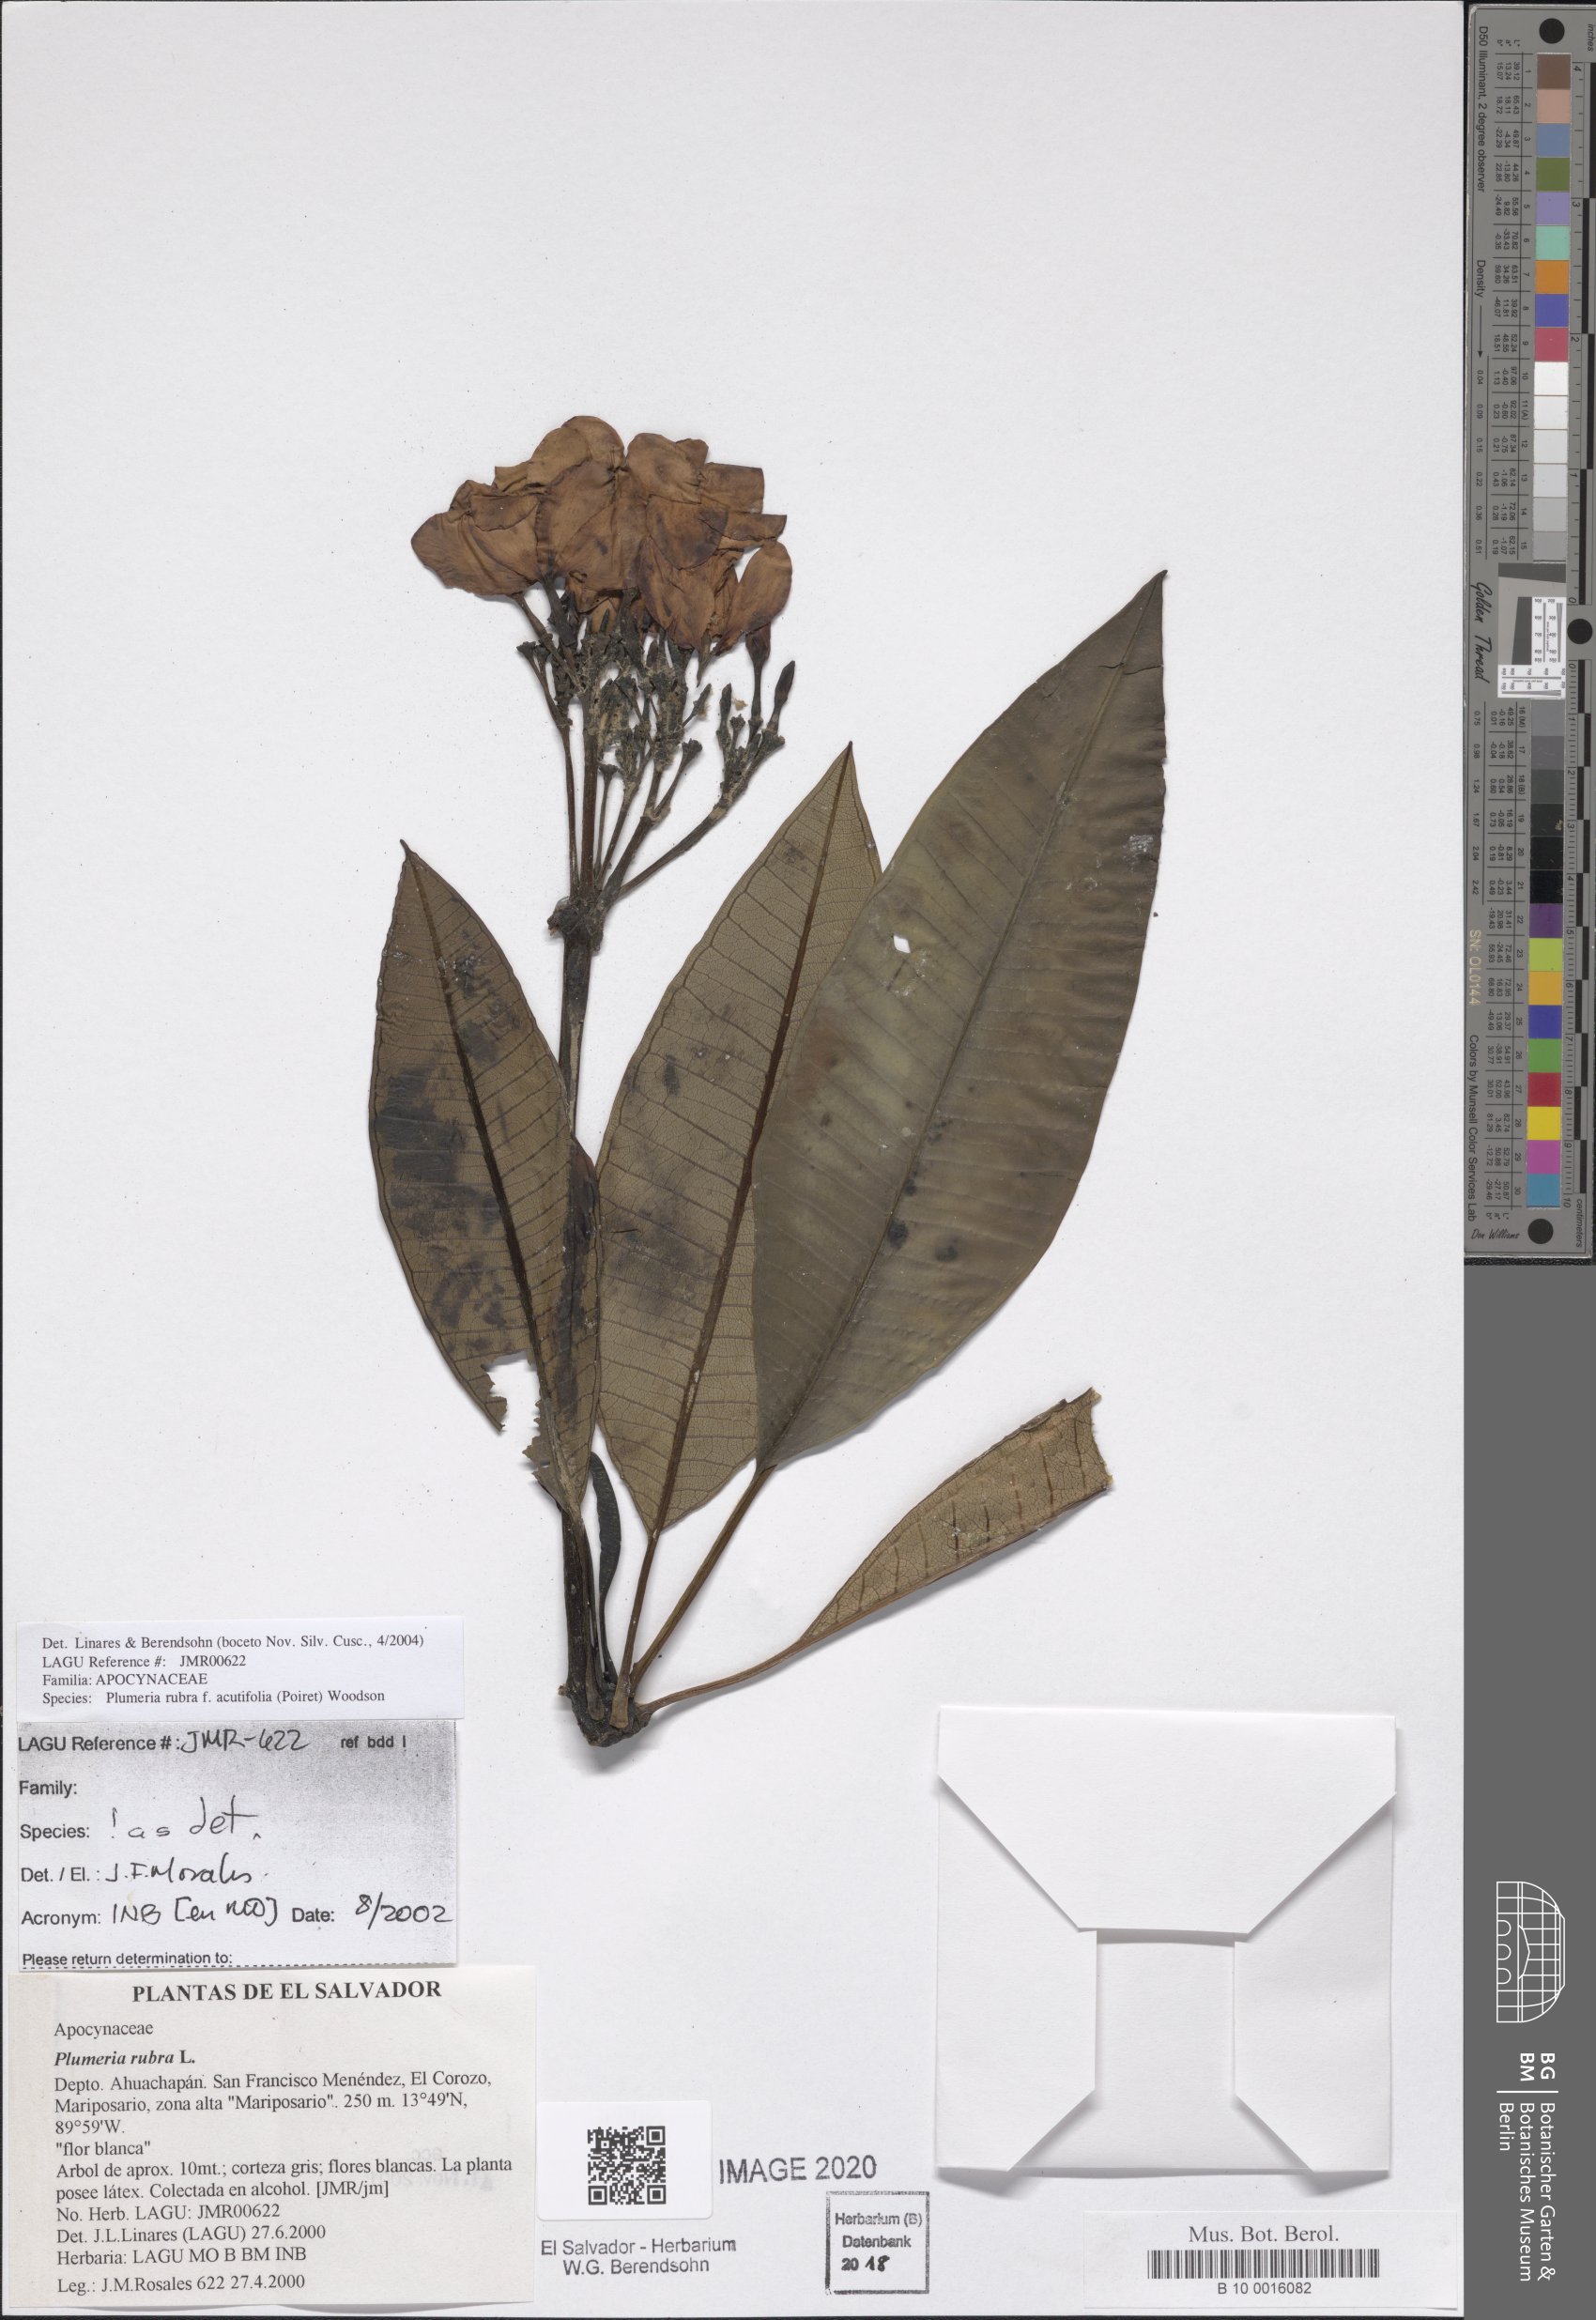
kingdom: Plantae
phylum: Tracheophyta
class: Magnoliopsida
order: Gentianales
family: Apocynaceae
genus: Plumeria
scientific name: Plumeria rubra
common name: Pagoda-tree
